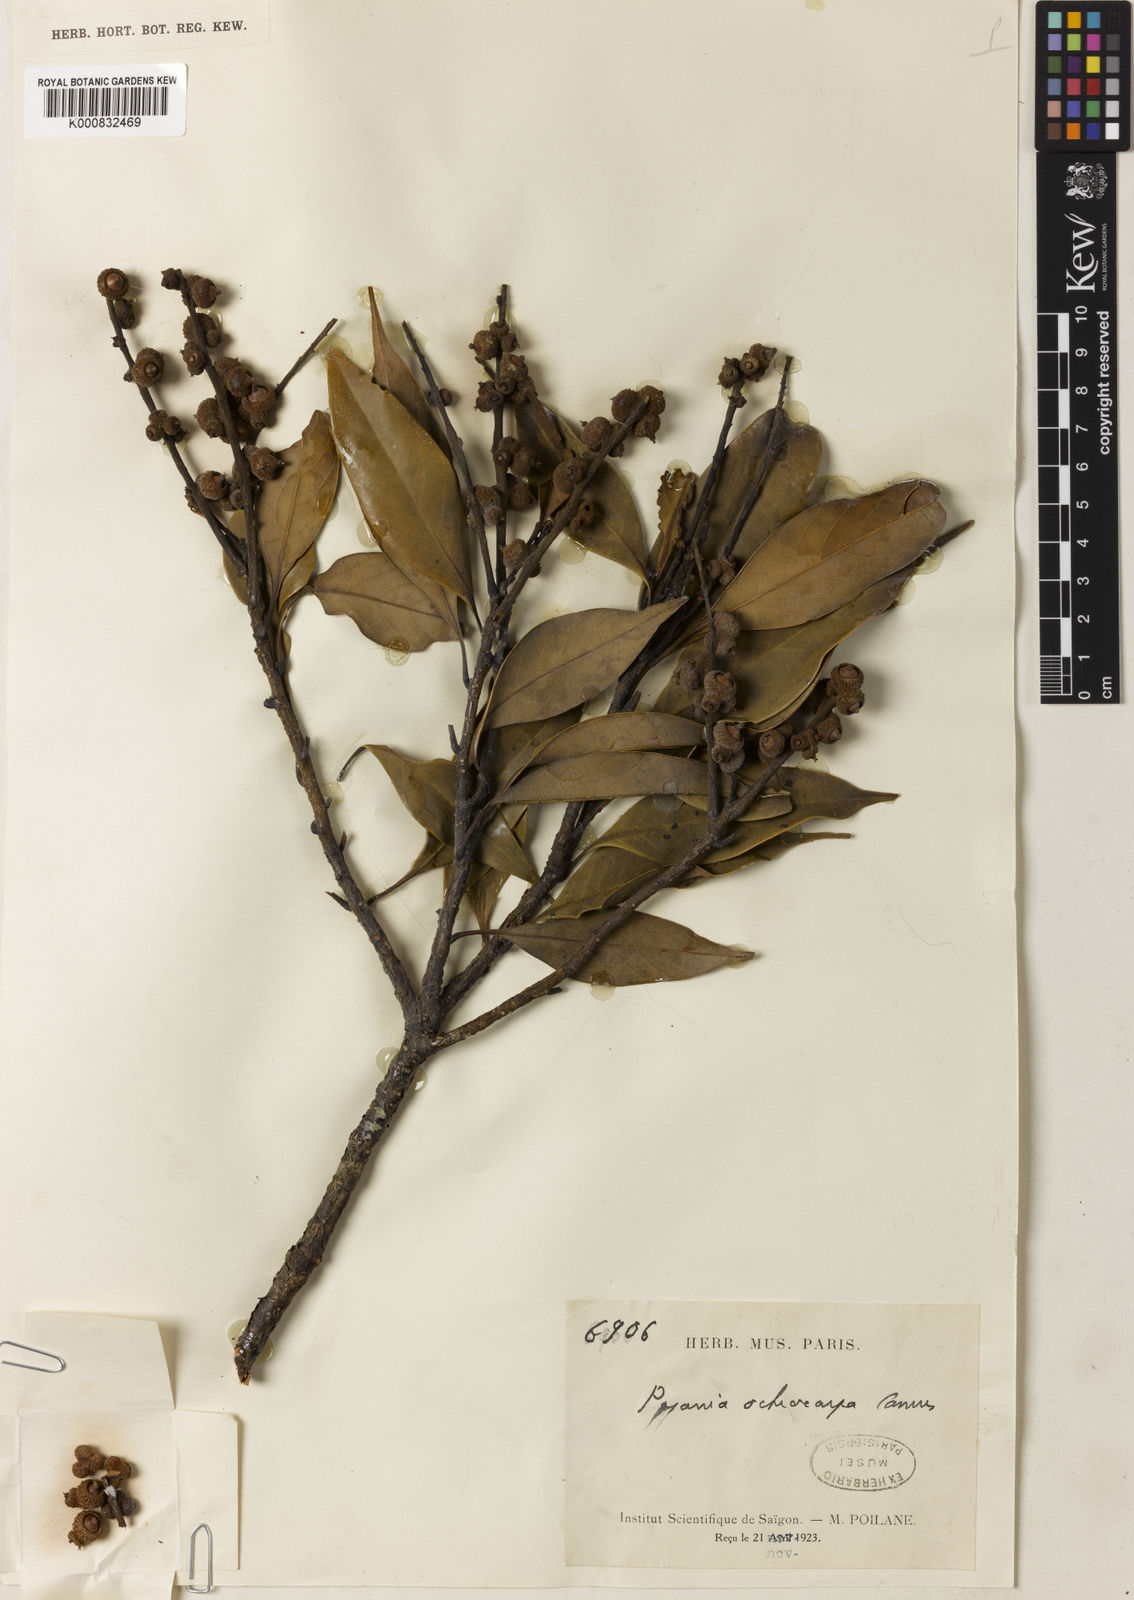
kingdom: Plantae
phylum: Tracheophyta
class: Magnoliopsida
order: Fagales
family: Fagaceae
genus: Lithocarpus
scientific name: Lithocarpus ochrocarpus
